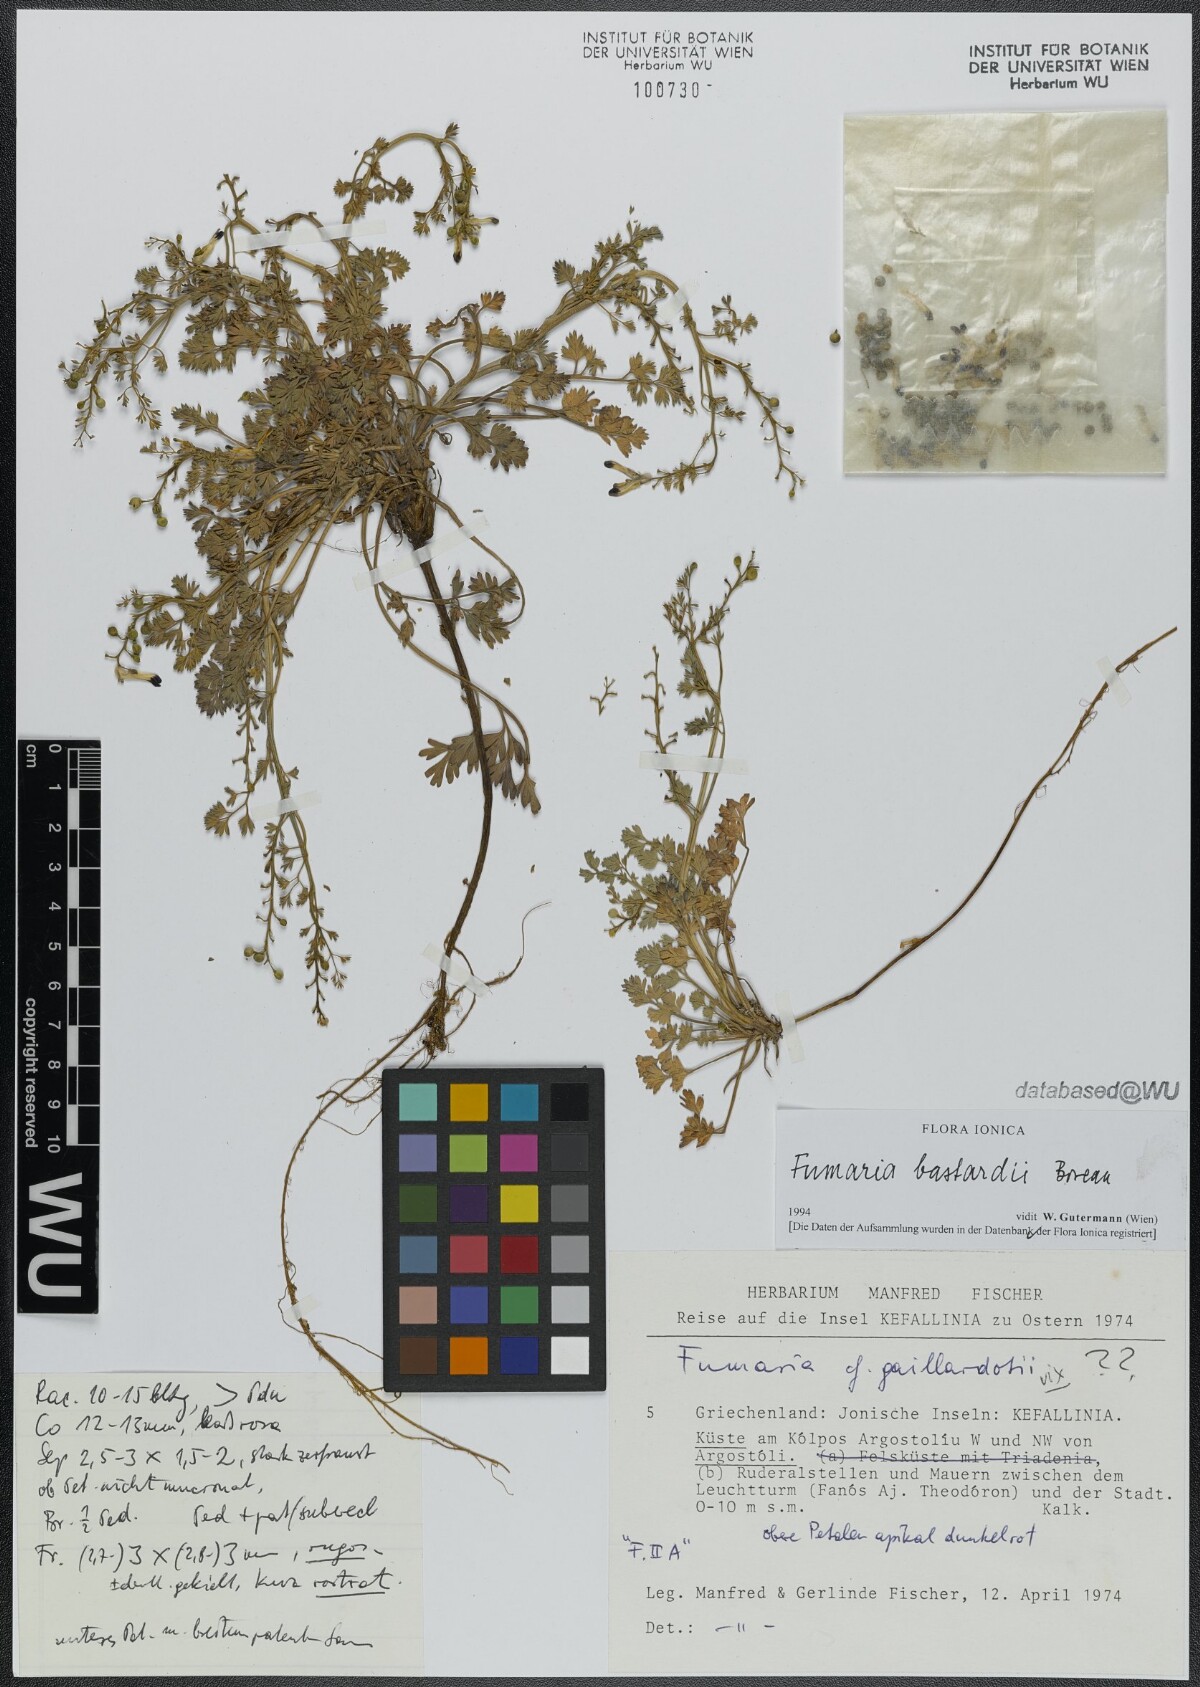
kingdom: Plantae
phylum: Tracheophyta
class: Magnoliopsida
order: Ranunculales
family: Papaveraceae
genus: Fumaria
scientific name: Fumaria bastardii
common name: Tall ramping-fumitory
